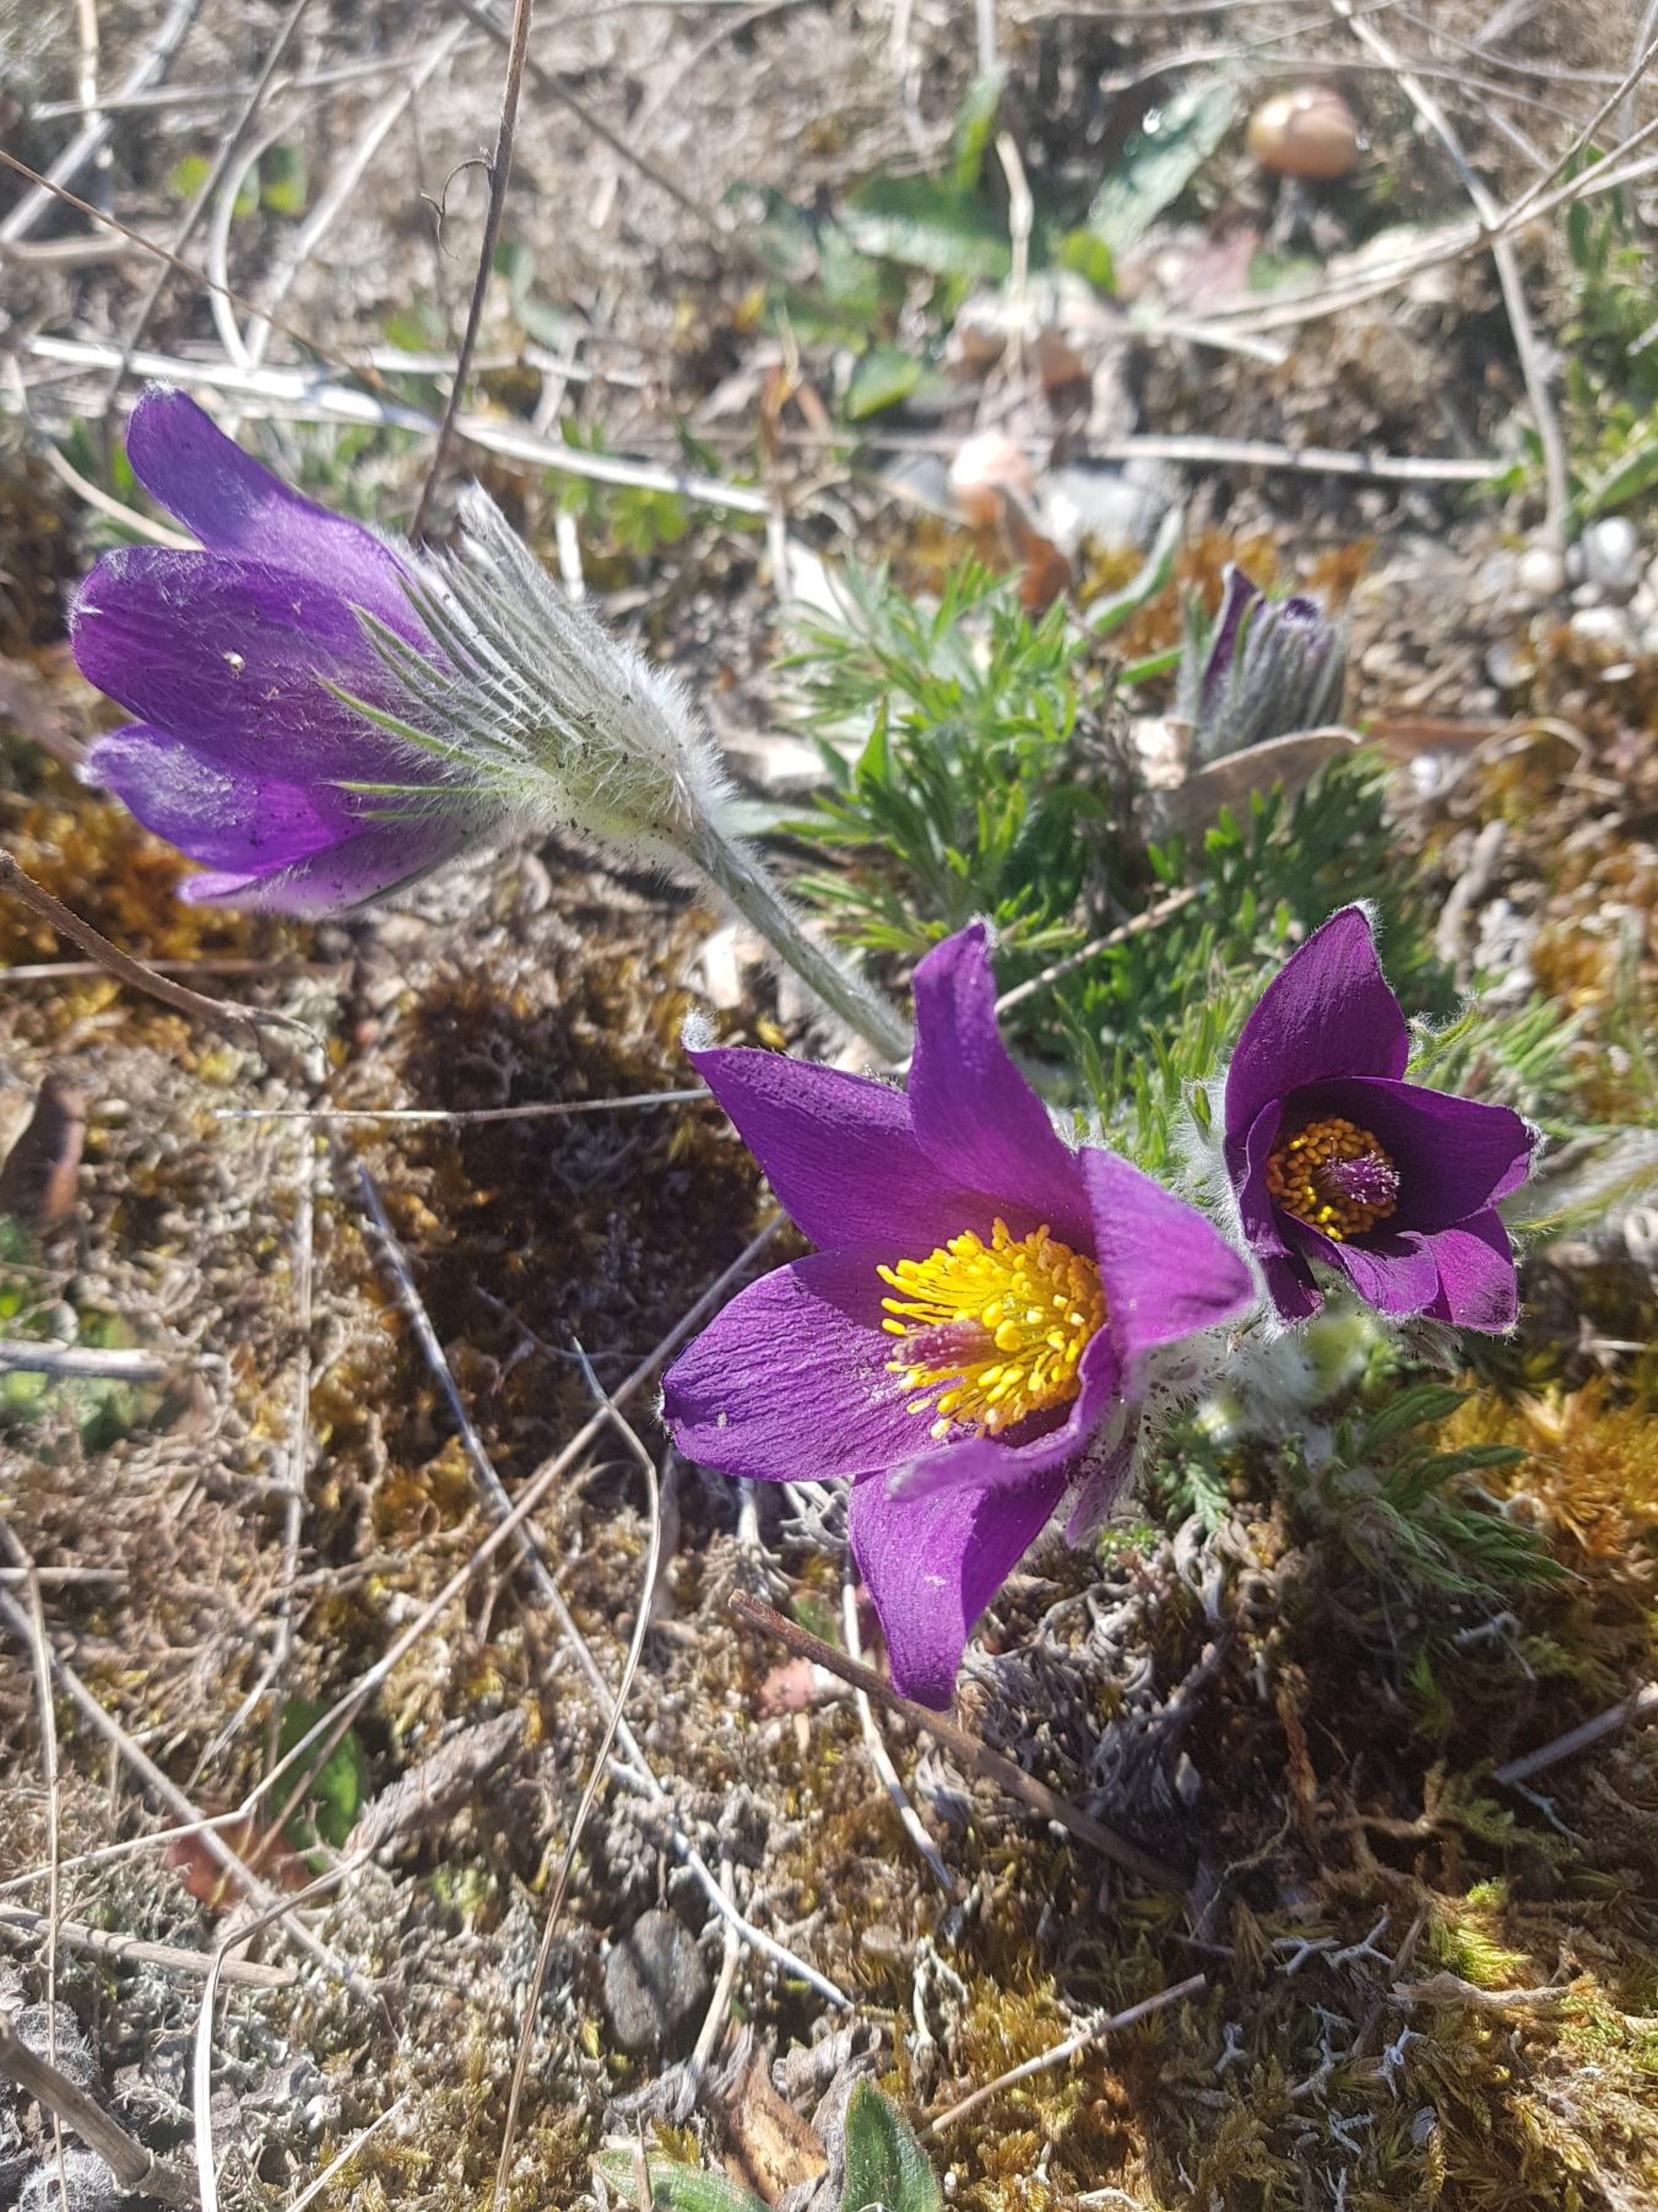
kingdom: Plantae
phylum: Tracheophyta
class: Magnoliopsida
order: Ranunculales
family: Ranunculaceae
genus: Pulsatilla
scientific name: Pulsatilla vulgaris
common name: Opret kobjælde
